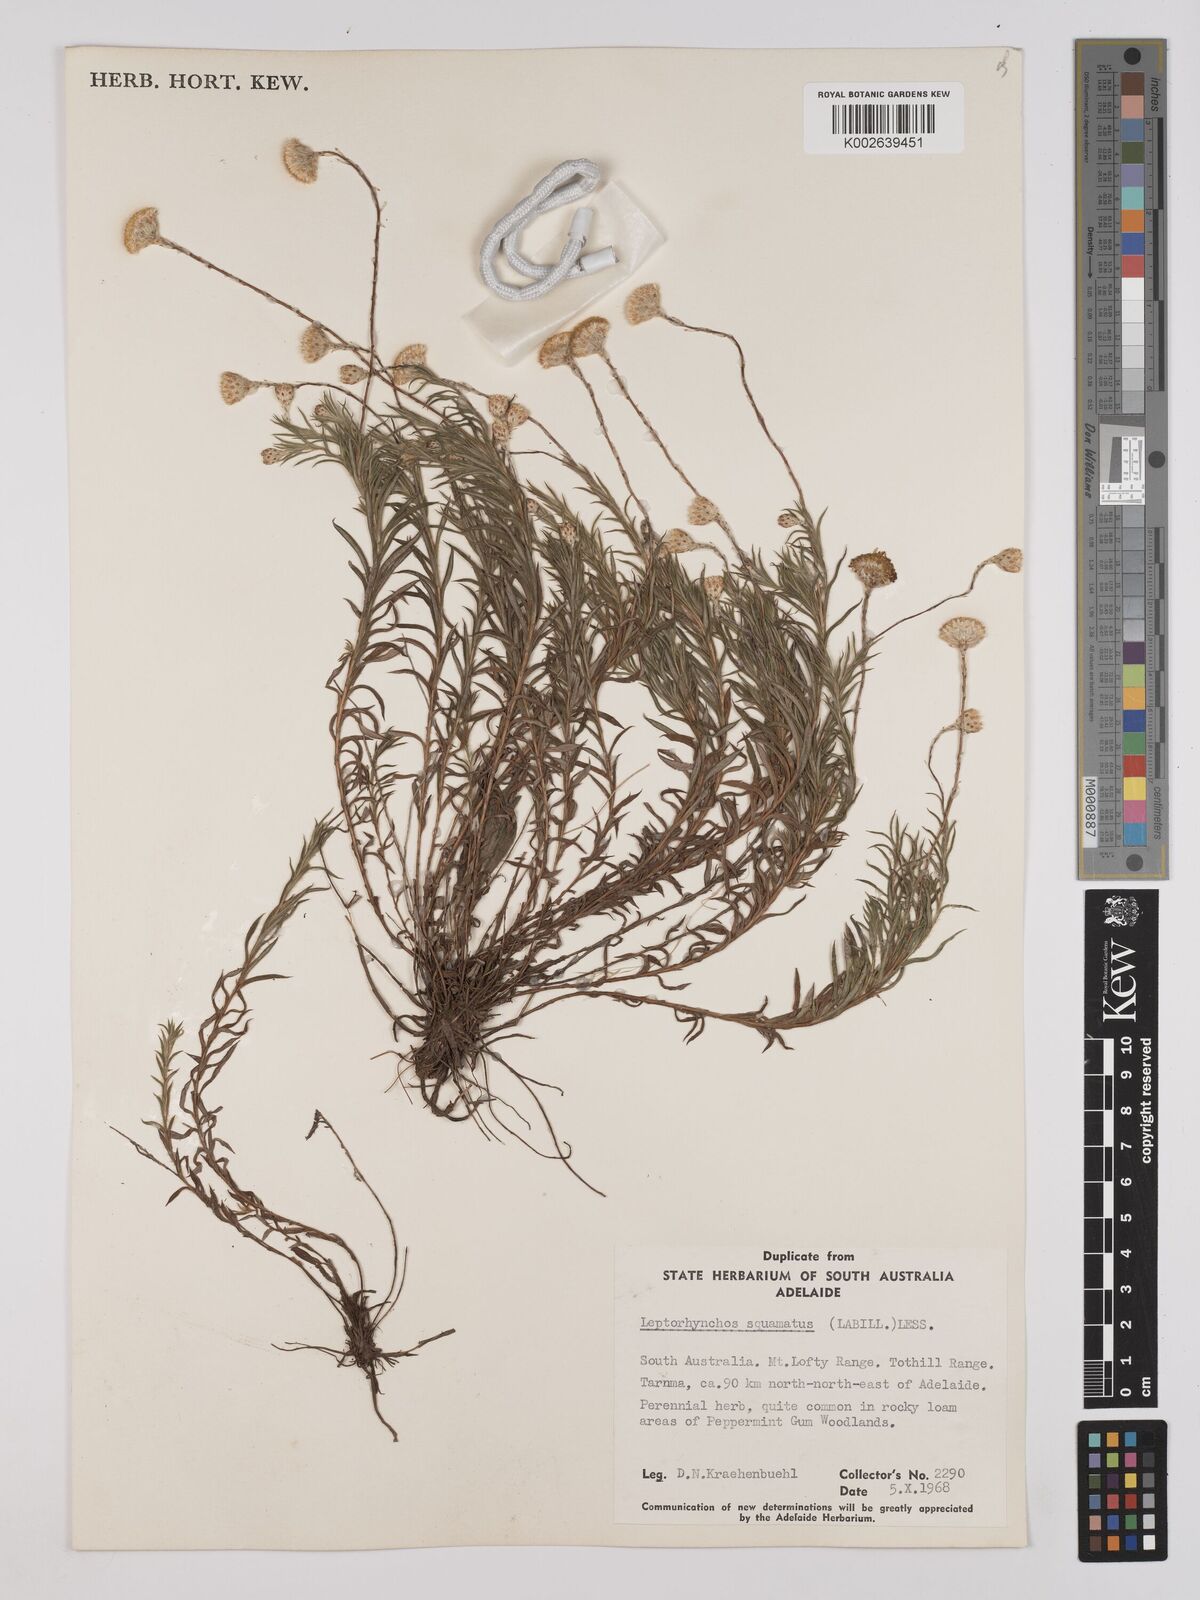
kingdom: Plantae
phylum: Tracheophyta
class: Magnoliopsida
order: Asterales
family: Asteraceae
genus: Leptorhynchos
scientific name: Leptorhynchos squamatus
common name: Scaly-buttons
